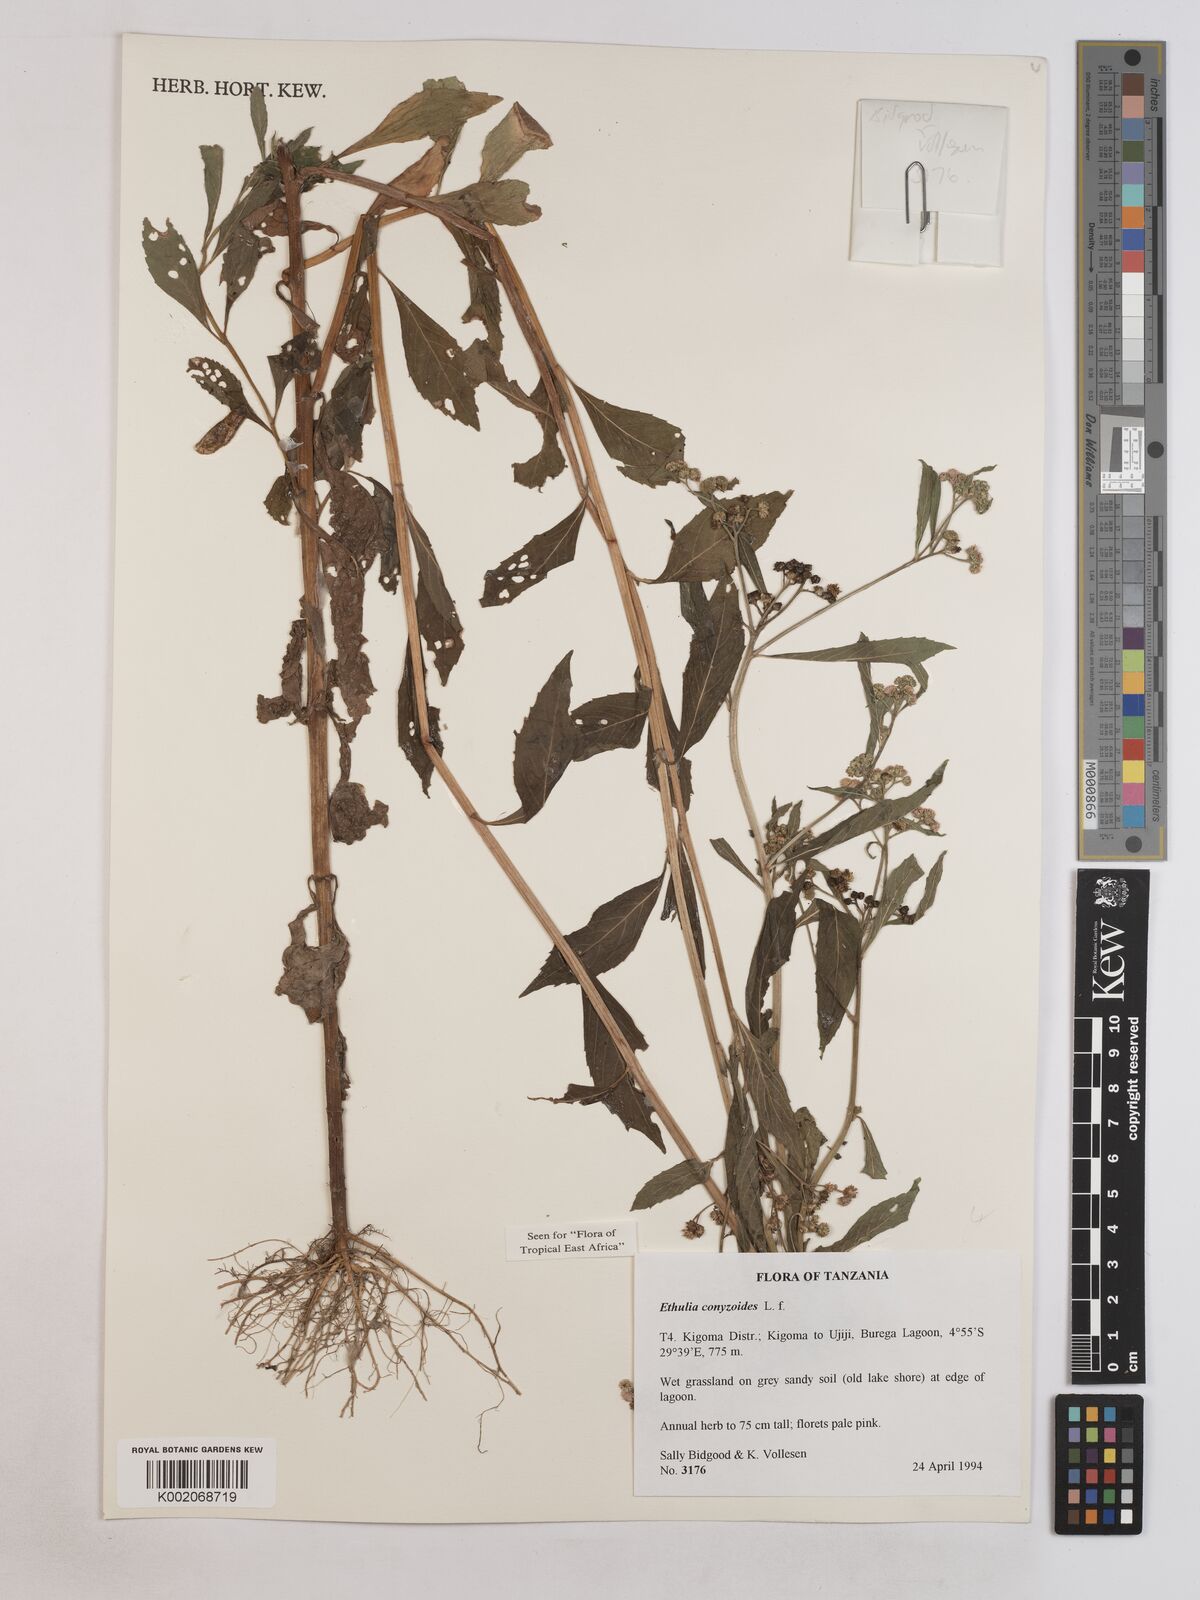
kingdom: Plantae
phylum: Tracheophyta
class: Magnoliopsida
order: Asterales
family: Asteraceae
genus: Ethulia
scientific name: Ethulia conyzoides
